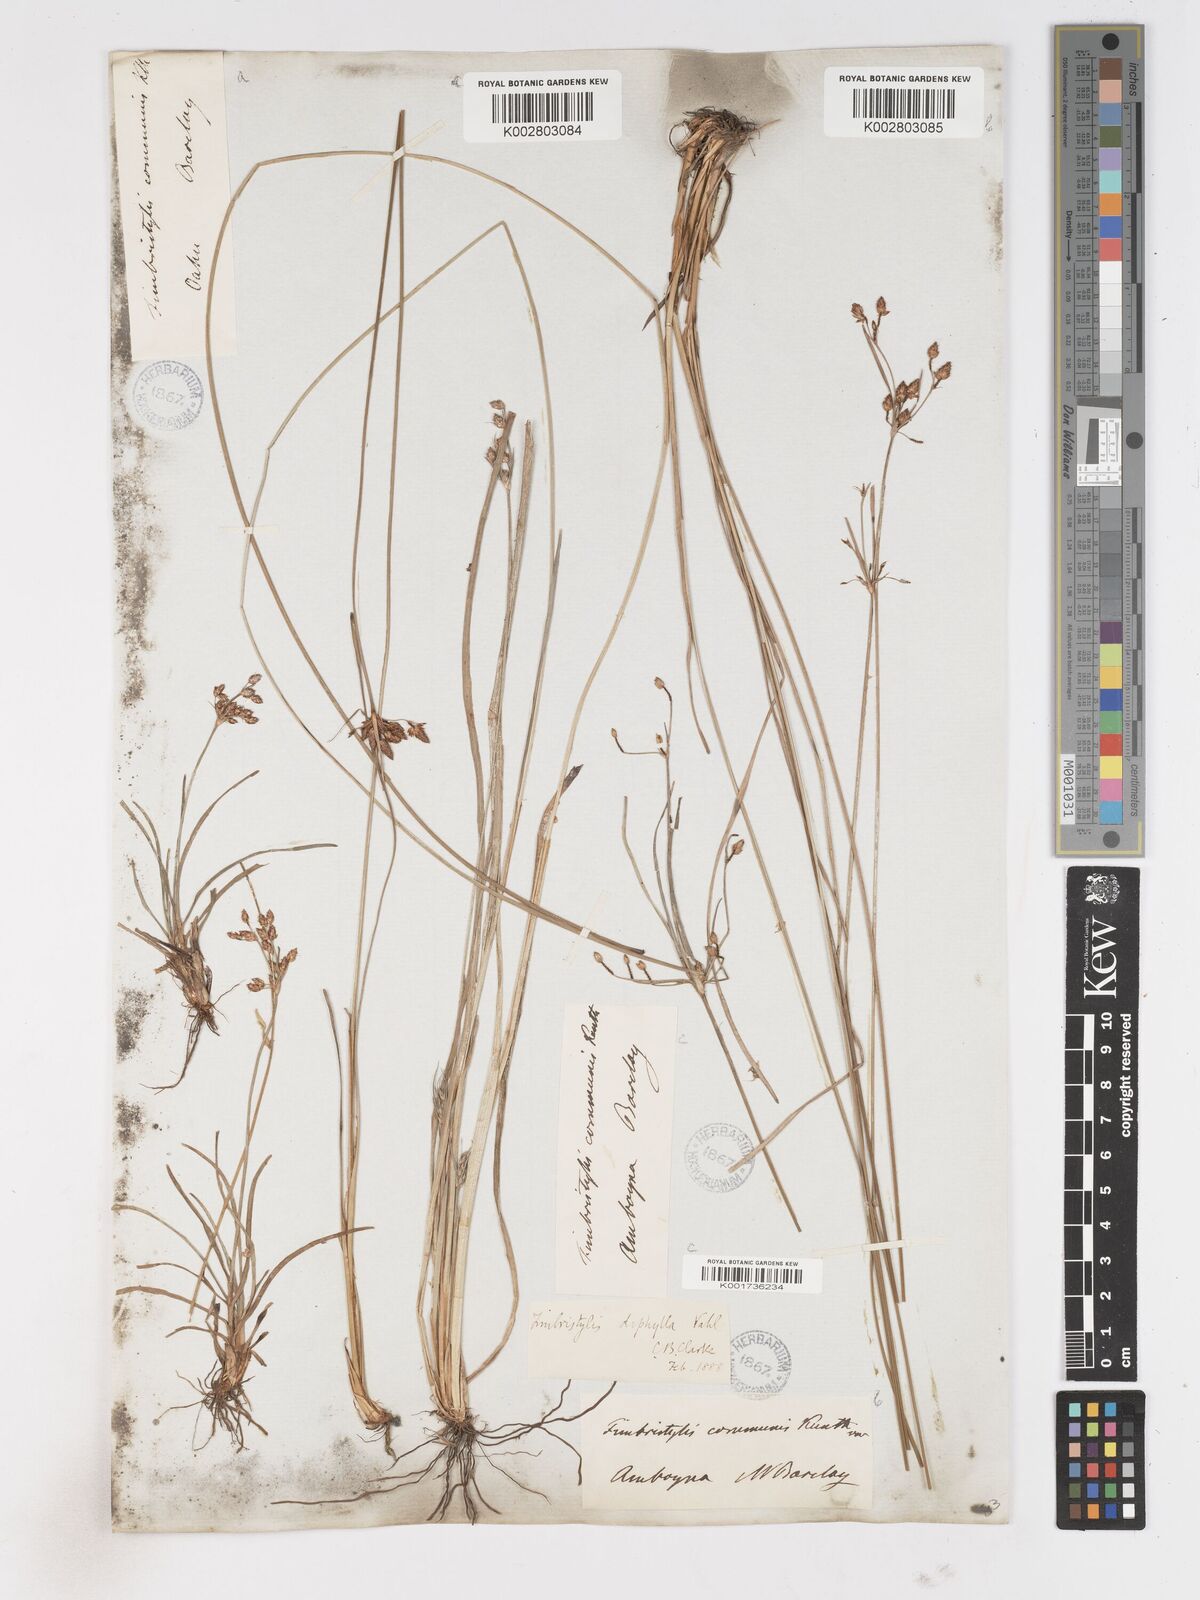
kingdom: Plantae
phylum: Tracheophyta
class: Liliopsida
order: Poales
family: Cyperaceae
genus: Fimbristylis
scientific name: Fimbristylis dichotoma
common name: Forked fimbry
